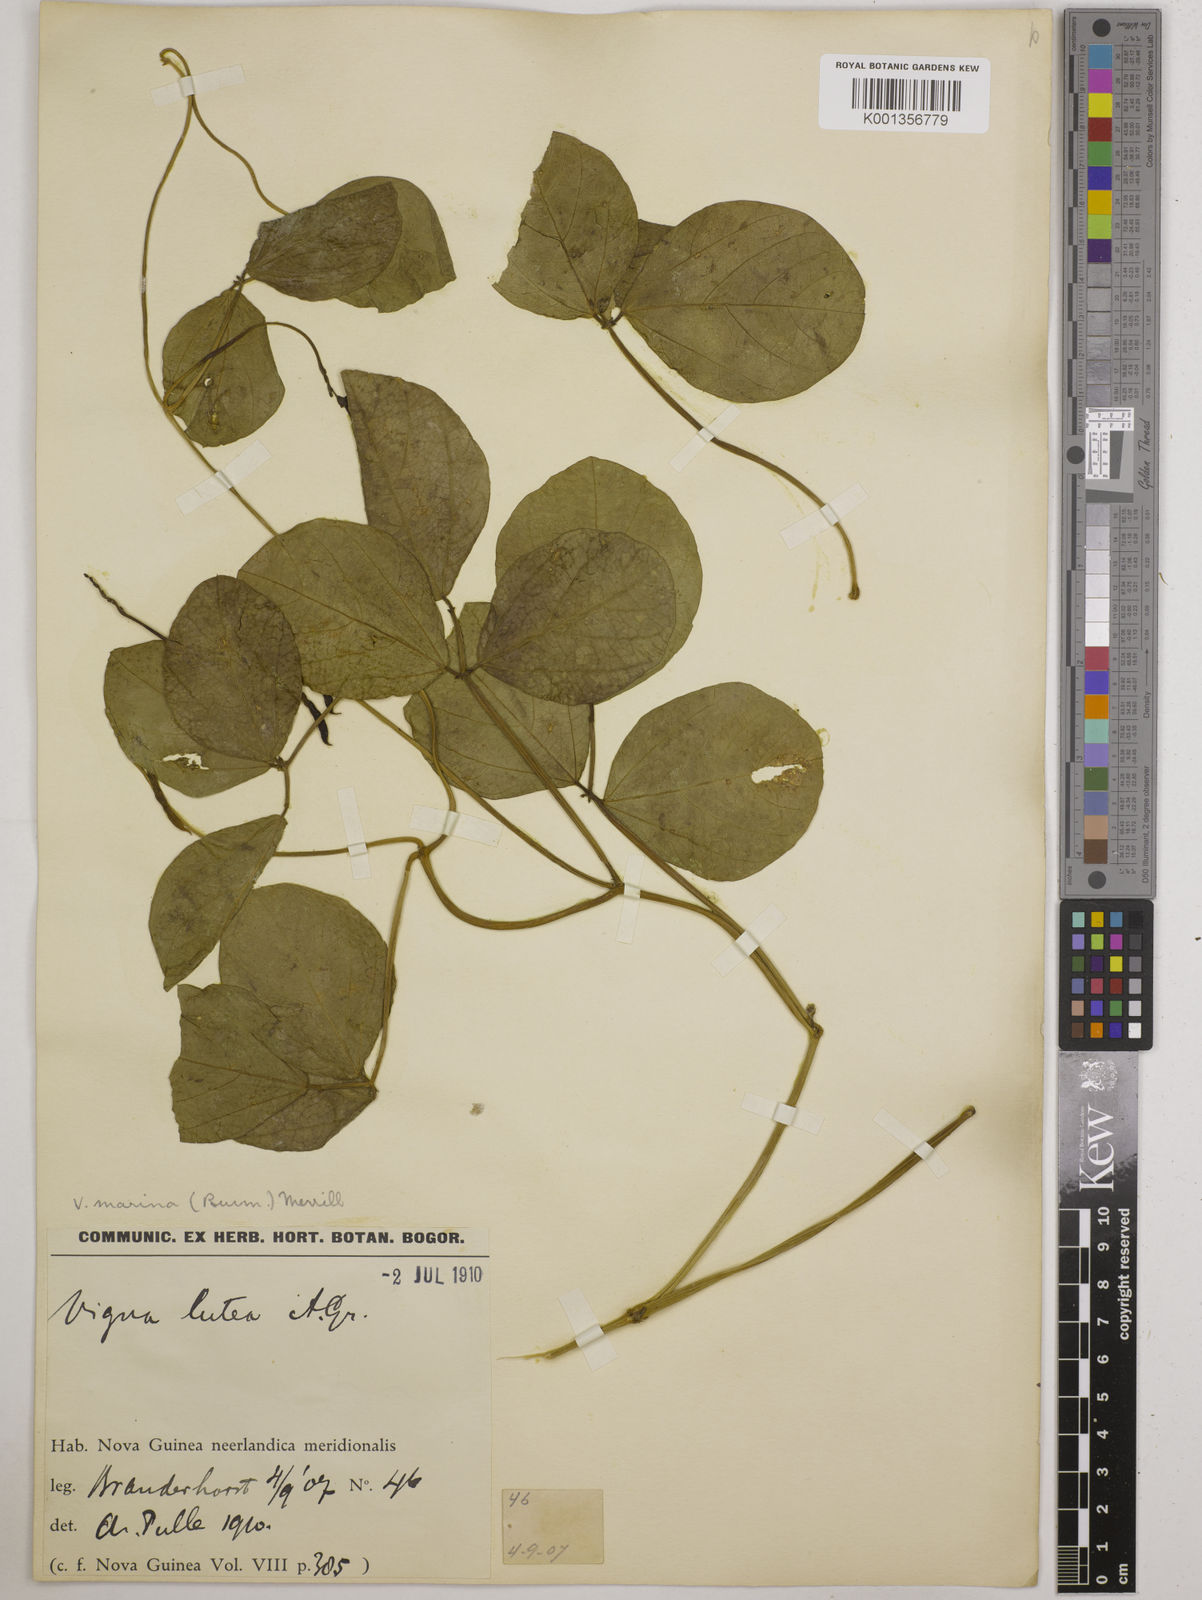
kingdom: Plantae
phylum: Tracheophyta
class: Magnoliopsida
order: Fabales
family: Fabaceae
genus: Vigna
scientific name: Vigna marina
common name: Dune-bean
